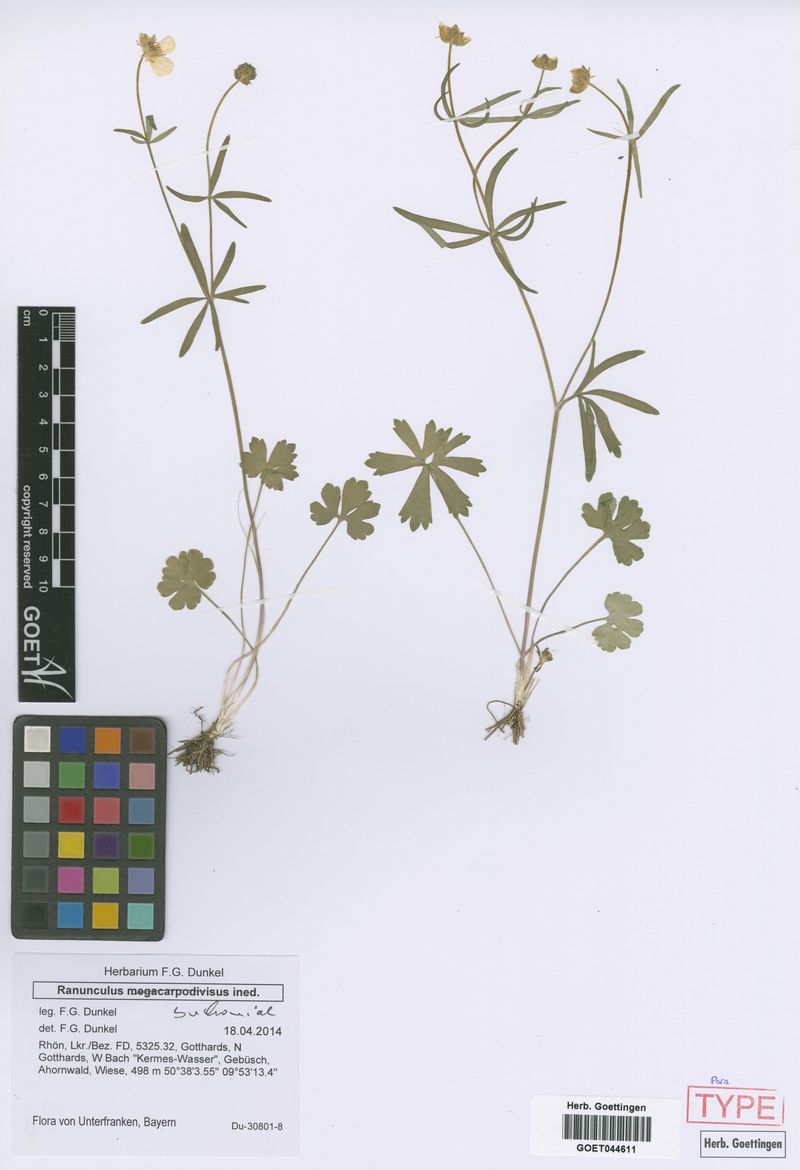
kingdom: Plantae
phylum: Tracheophyta
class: Magnoliopsida
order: Ranunculales
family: Ranunculaceae
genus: Ranunculus
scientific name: Ranunculus buchoniae
